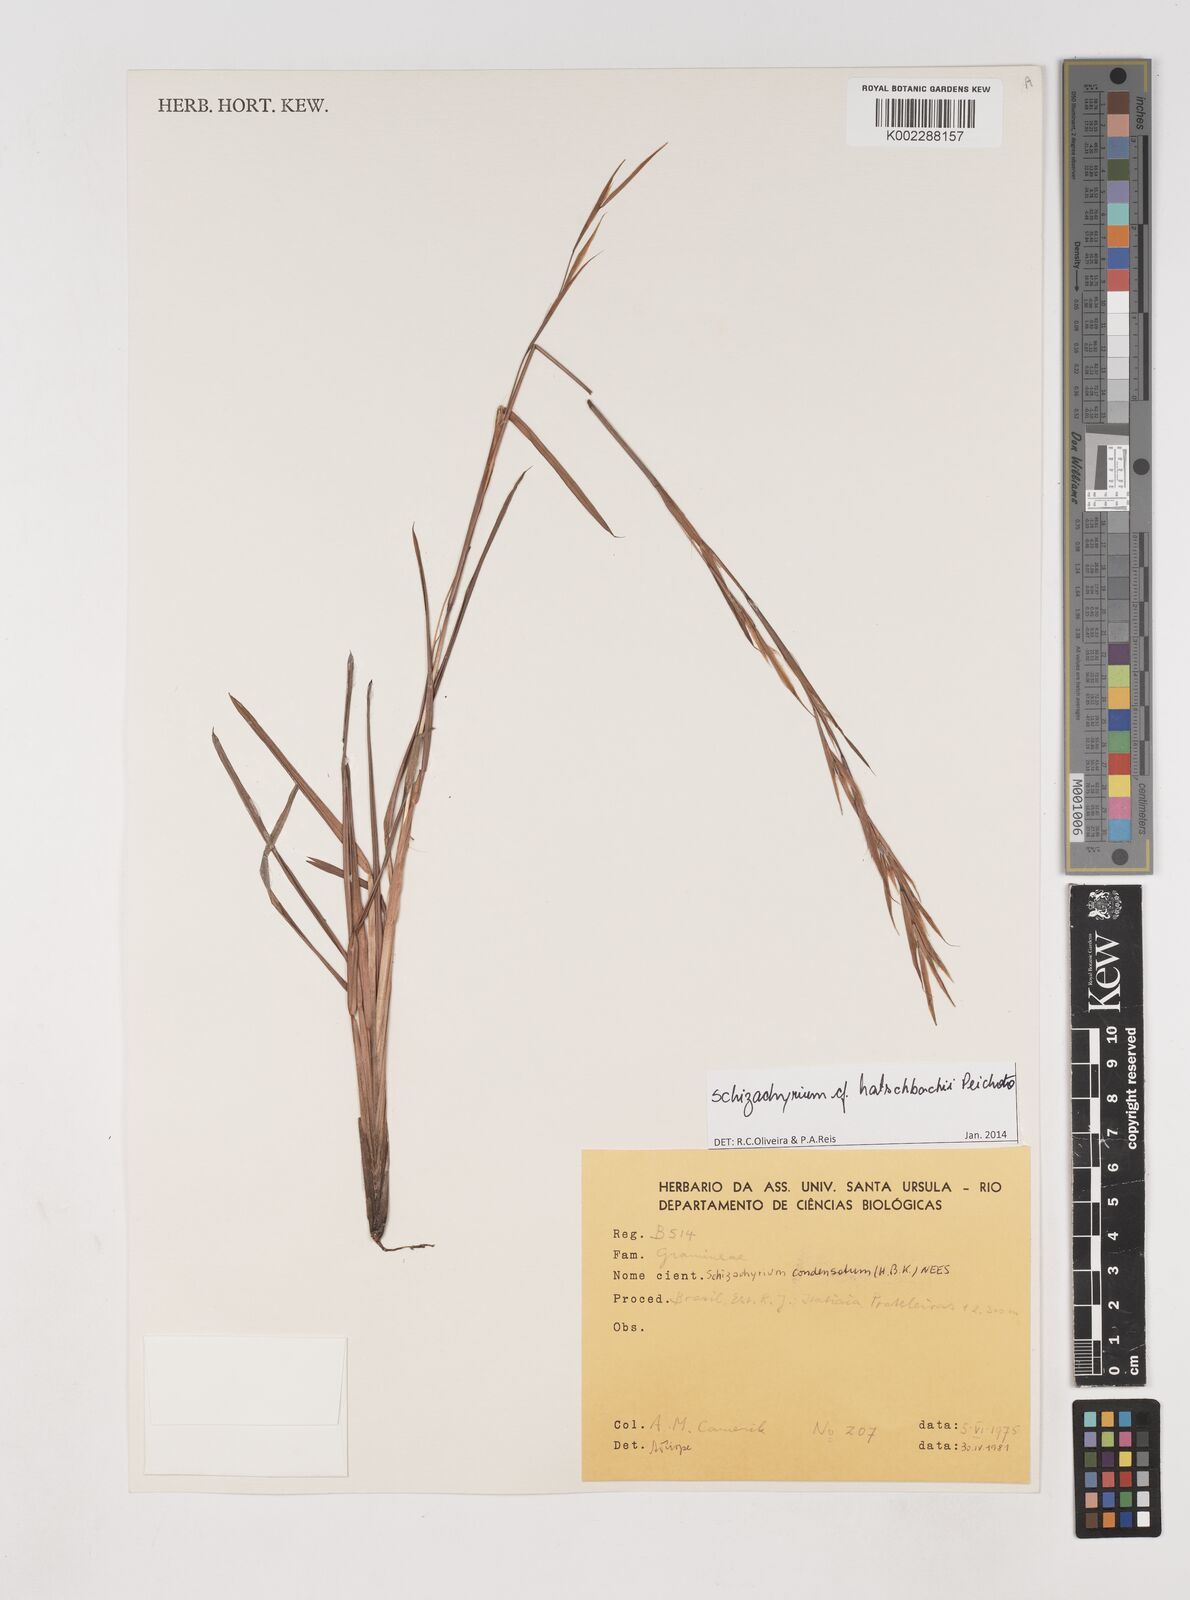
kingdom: Plantae
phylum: Tracheophyta
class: Liliopsida
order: Poales
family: Poaceae
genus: Schizachyrium
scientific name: Schizachyrium hatschbachii
